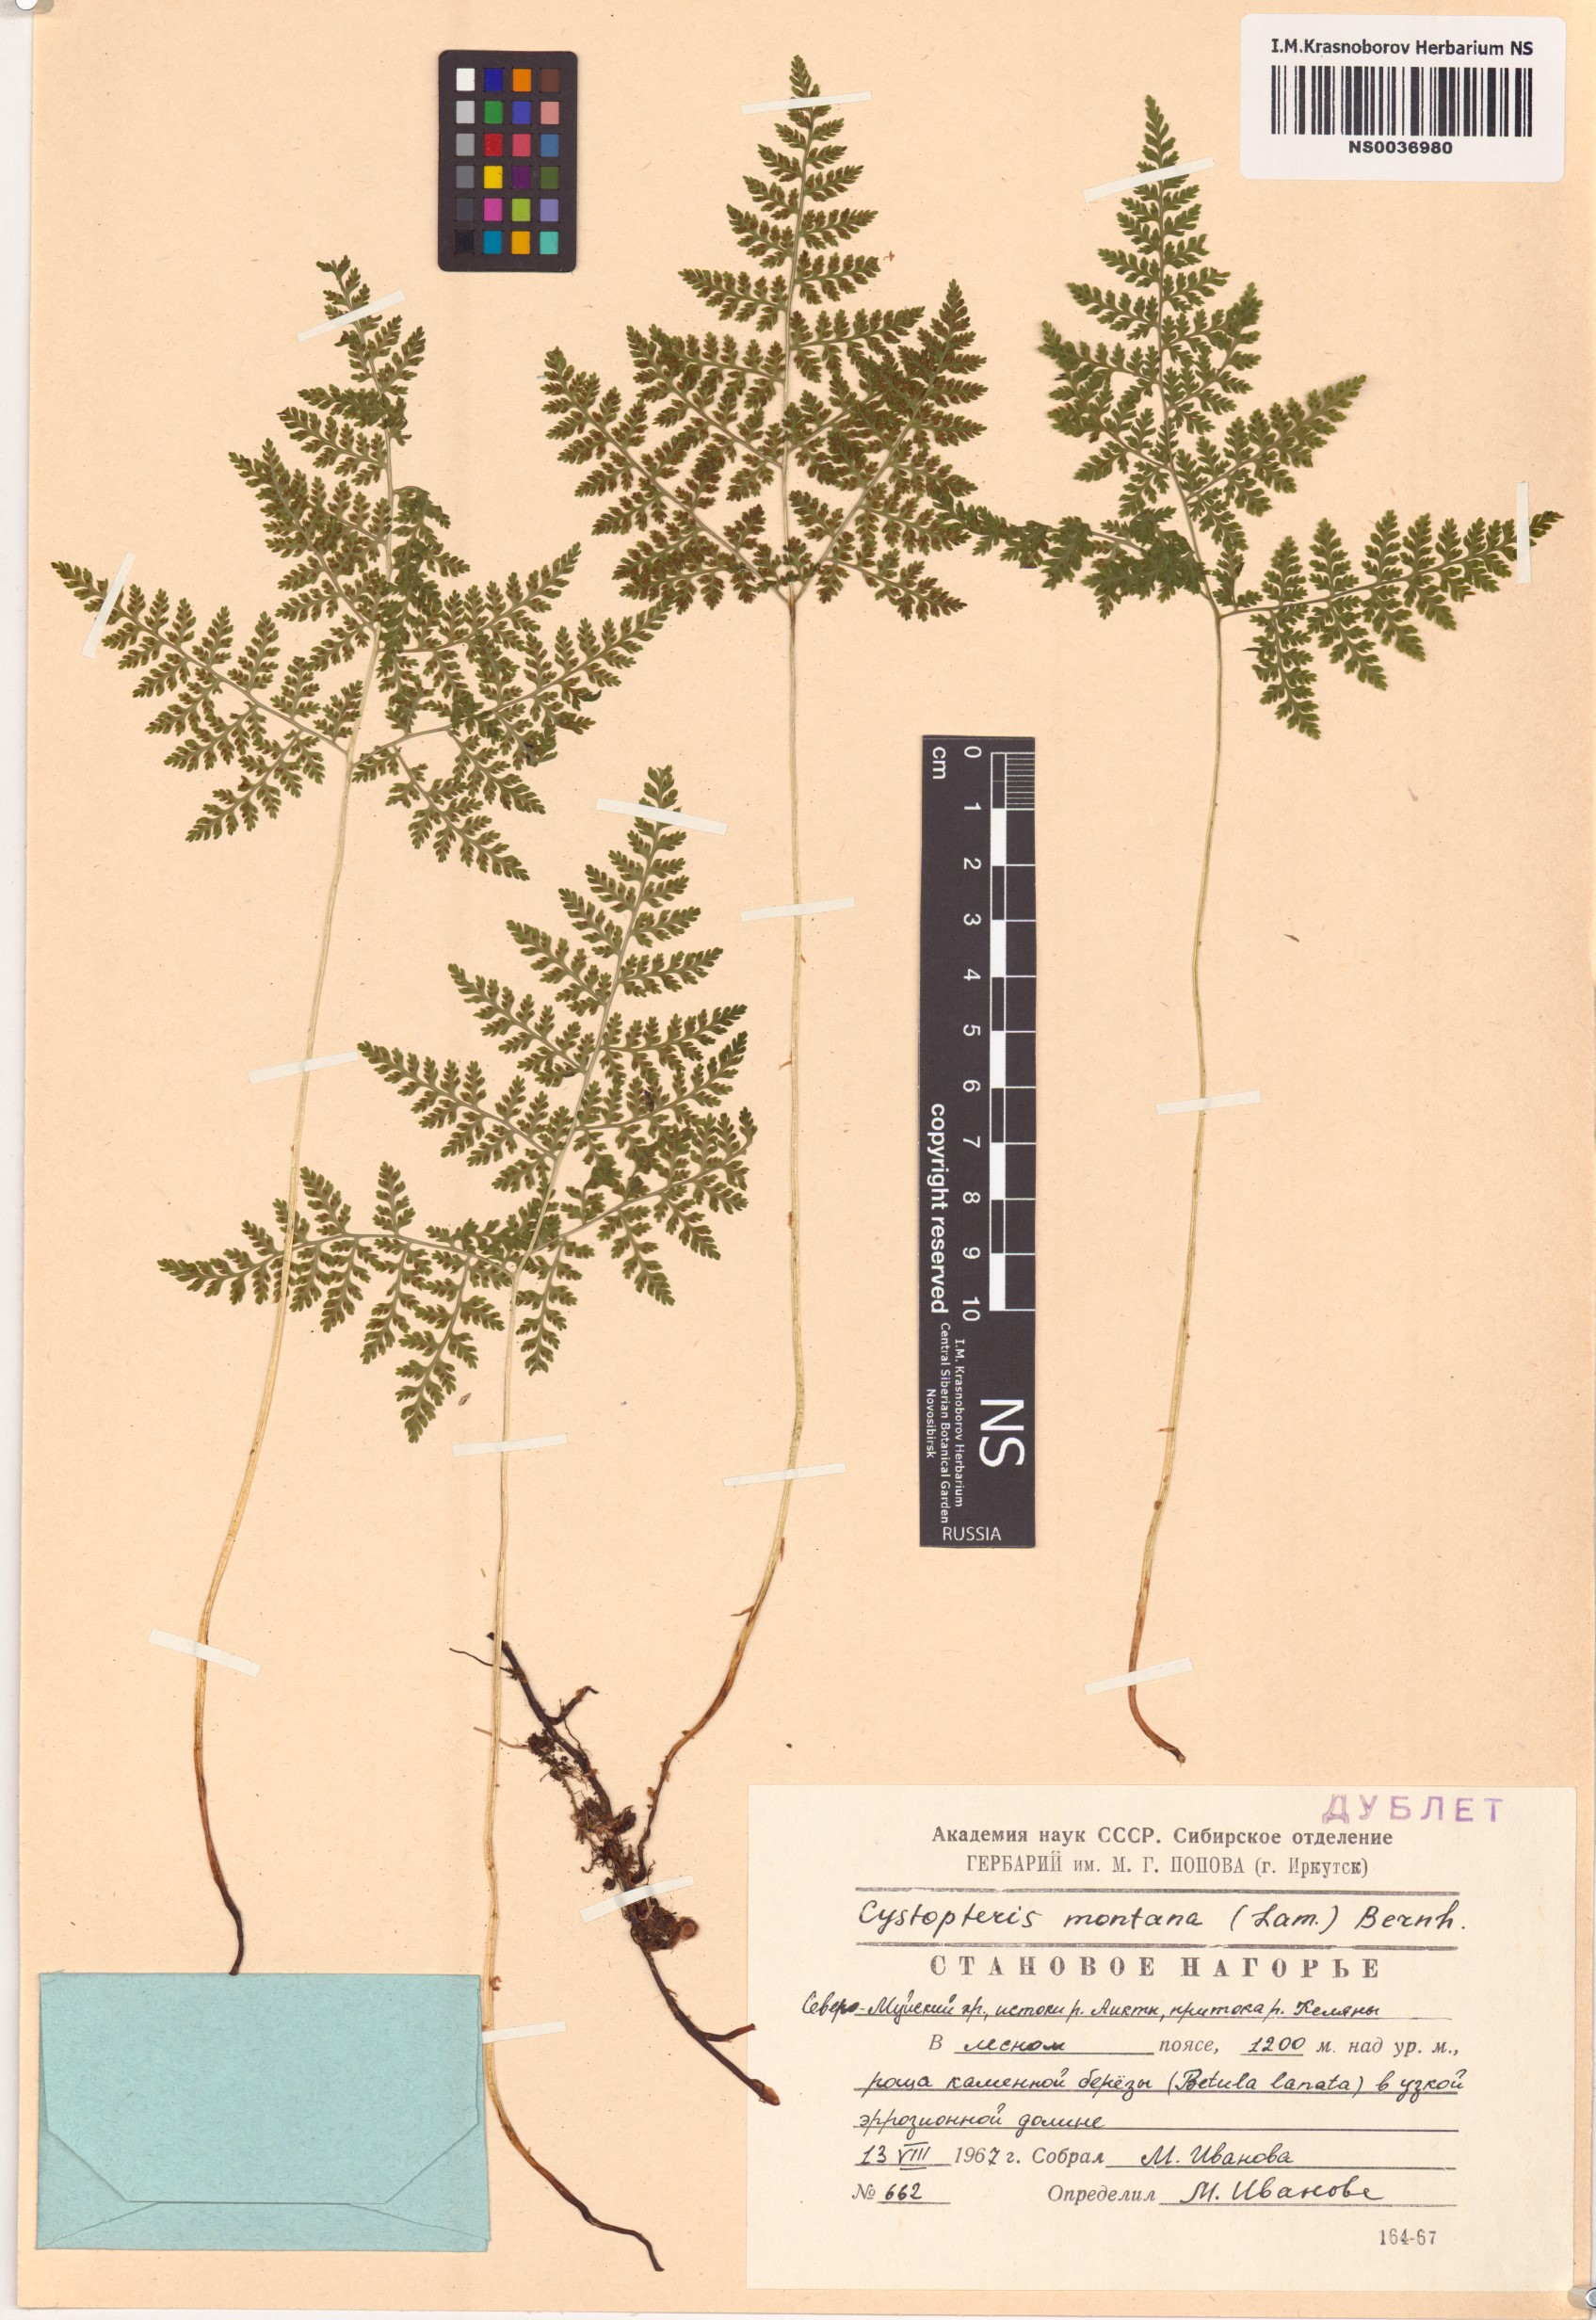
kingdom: Plantae
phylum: Tracheophyta
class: Polypodiopsida
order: Polypodiales
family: Cystopteridaceae
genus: Cystopteris
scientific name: Cystopteris montana
